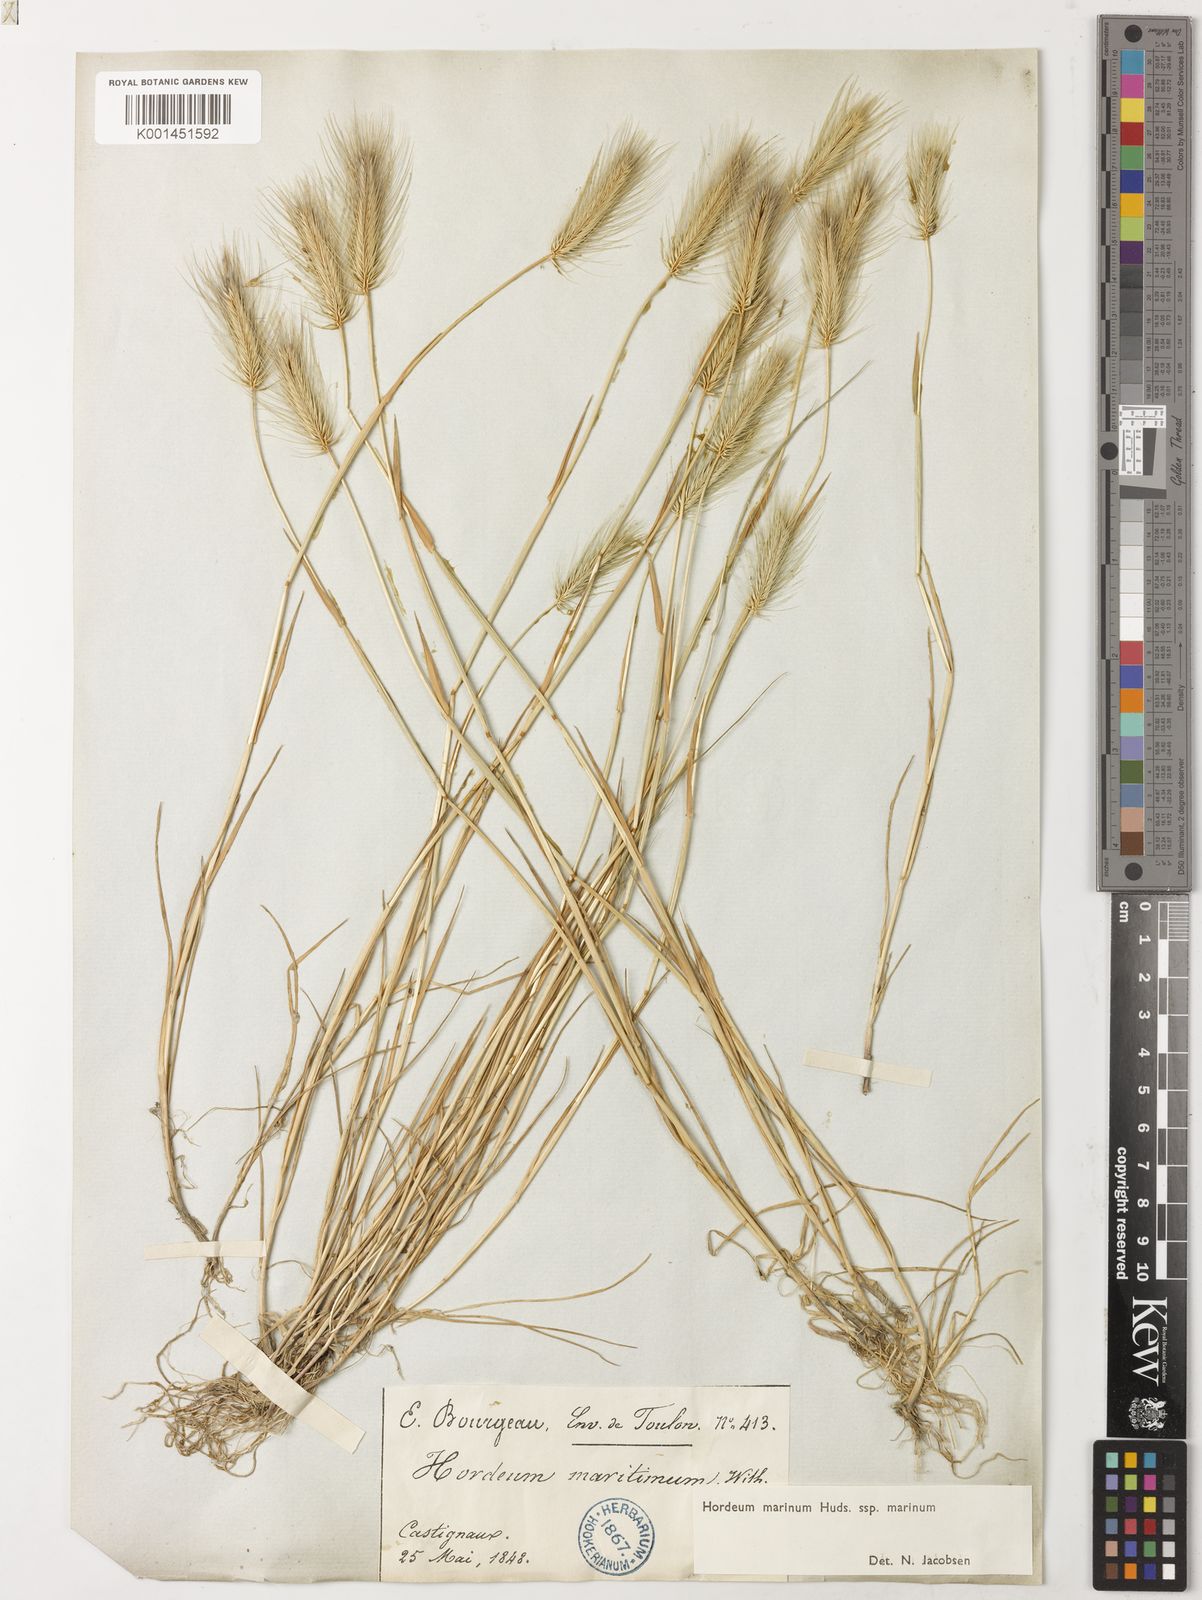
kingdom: Plantae
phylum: Tracheophyta
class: Liliopsida
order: Poales
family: Poaceae
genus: Hordeum
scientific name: Hordeum marinum
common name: Sea barley
